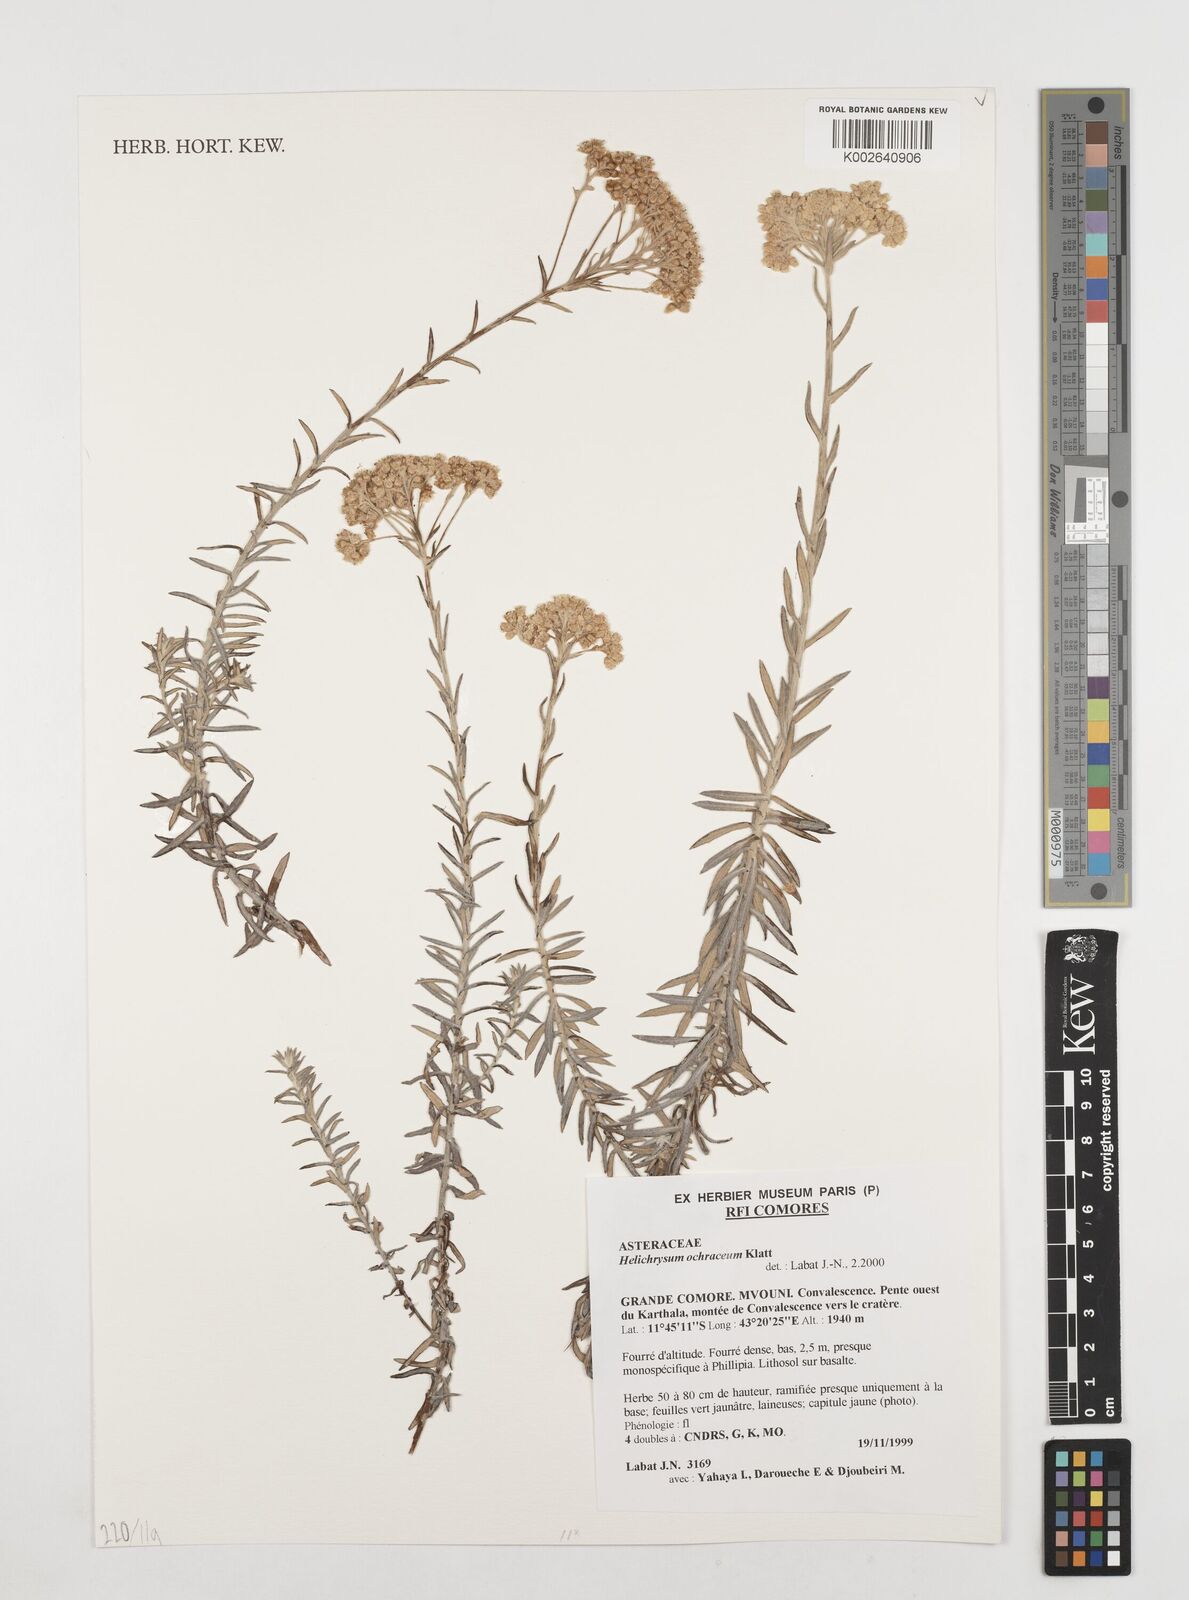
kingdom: Plantae
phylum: Tracheophyta
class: Magnoliopsida
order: Asterales
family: Asteraceae
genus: Helichrysum
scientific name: Helichrysum ochraceum
